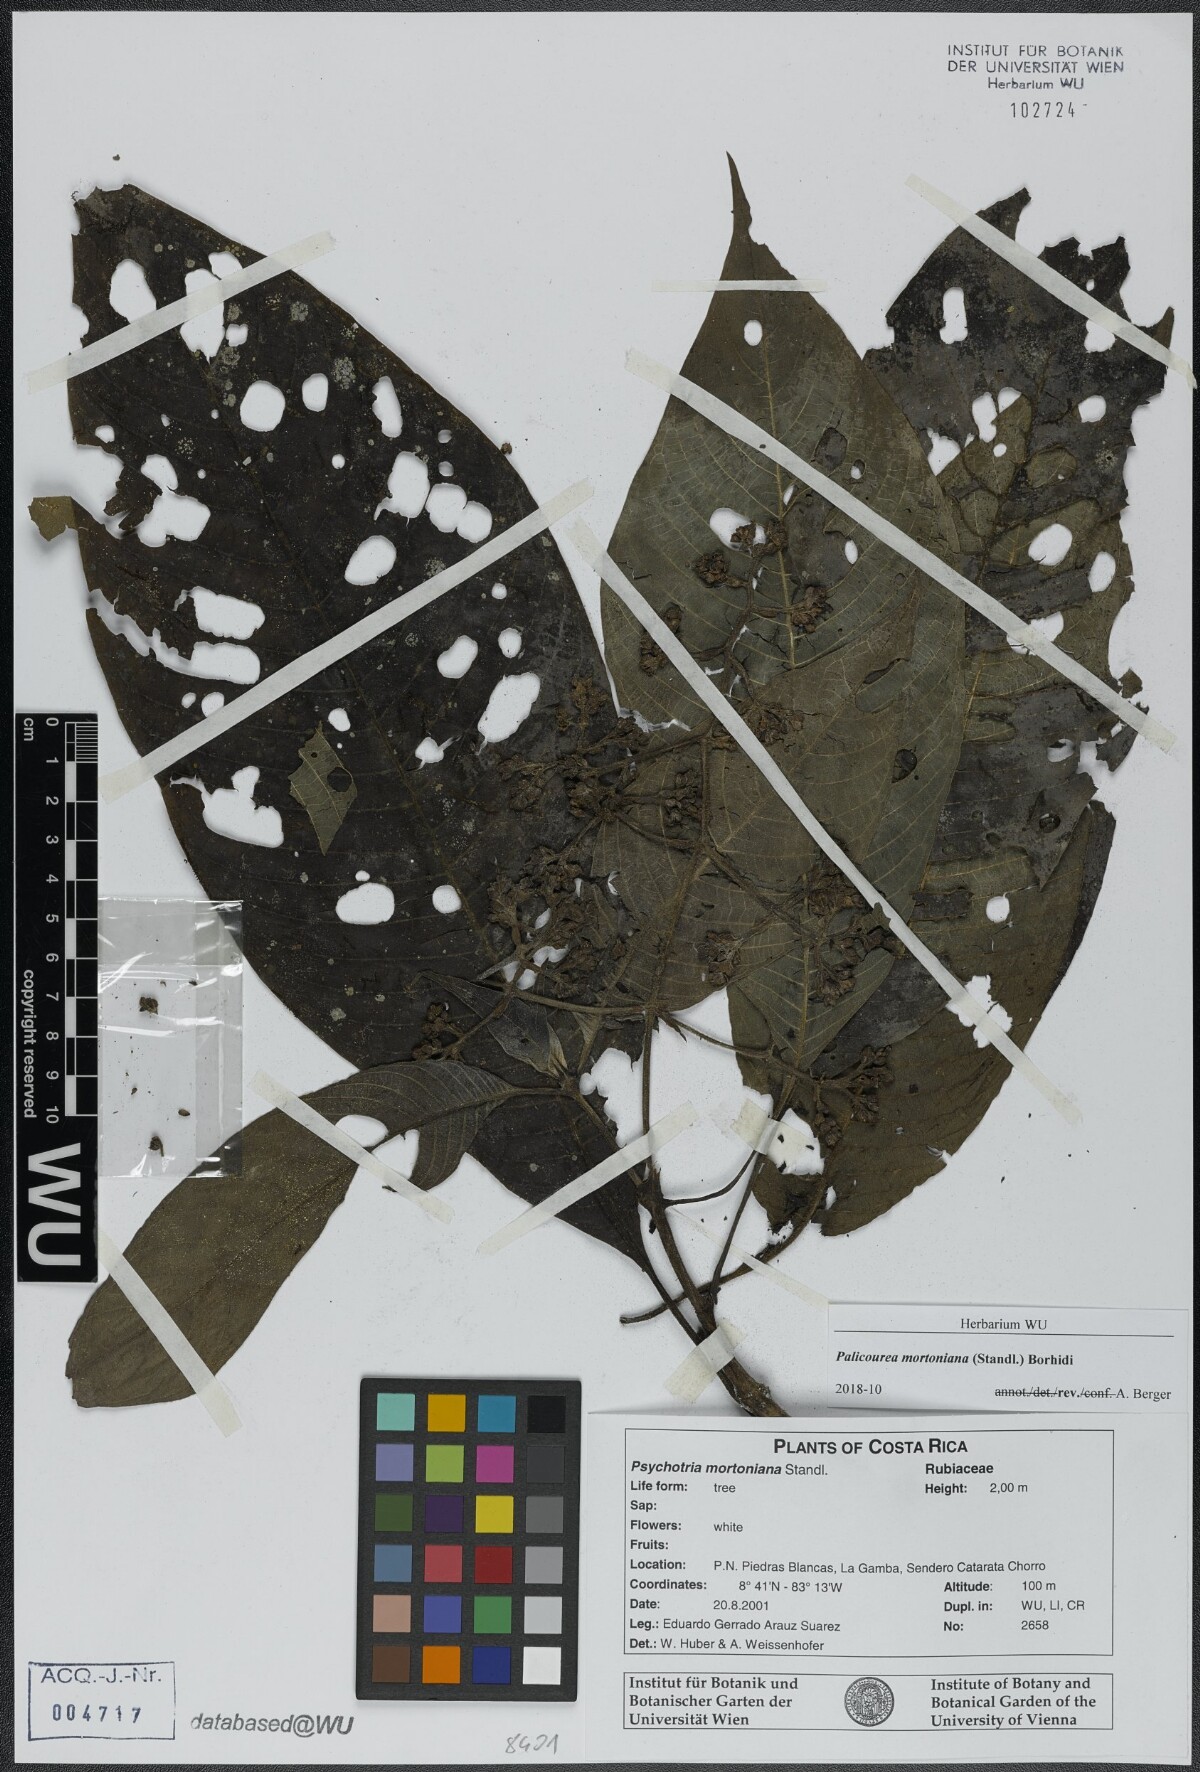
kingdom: Plantae
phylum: Tracheophyta
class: Magnoliopsida
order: Gentianales
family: Rubiaceae
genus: Palicourea
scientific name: Palicourea mortoniana
